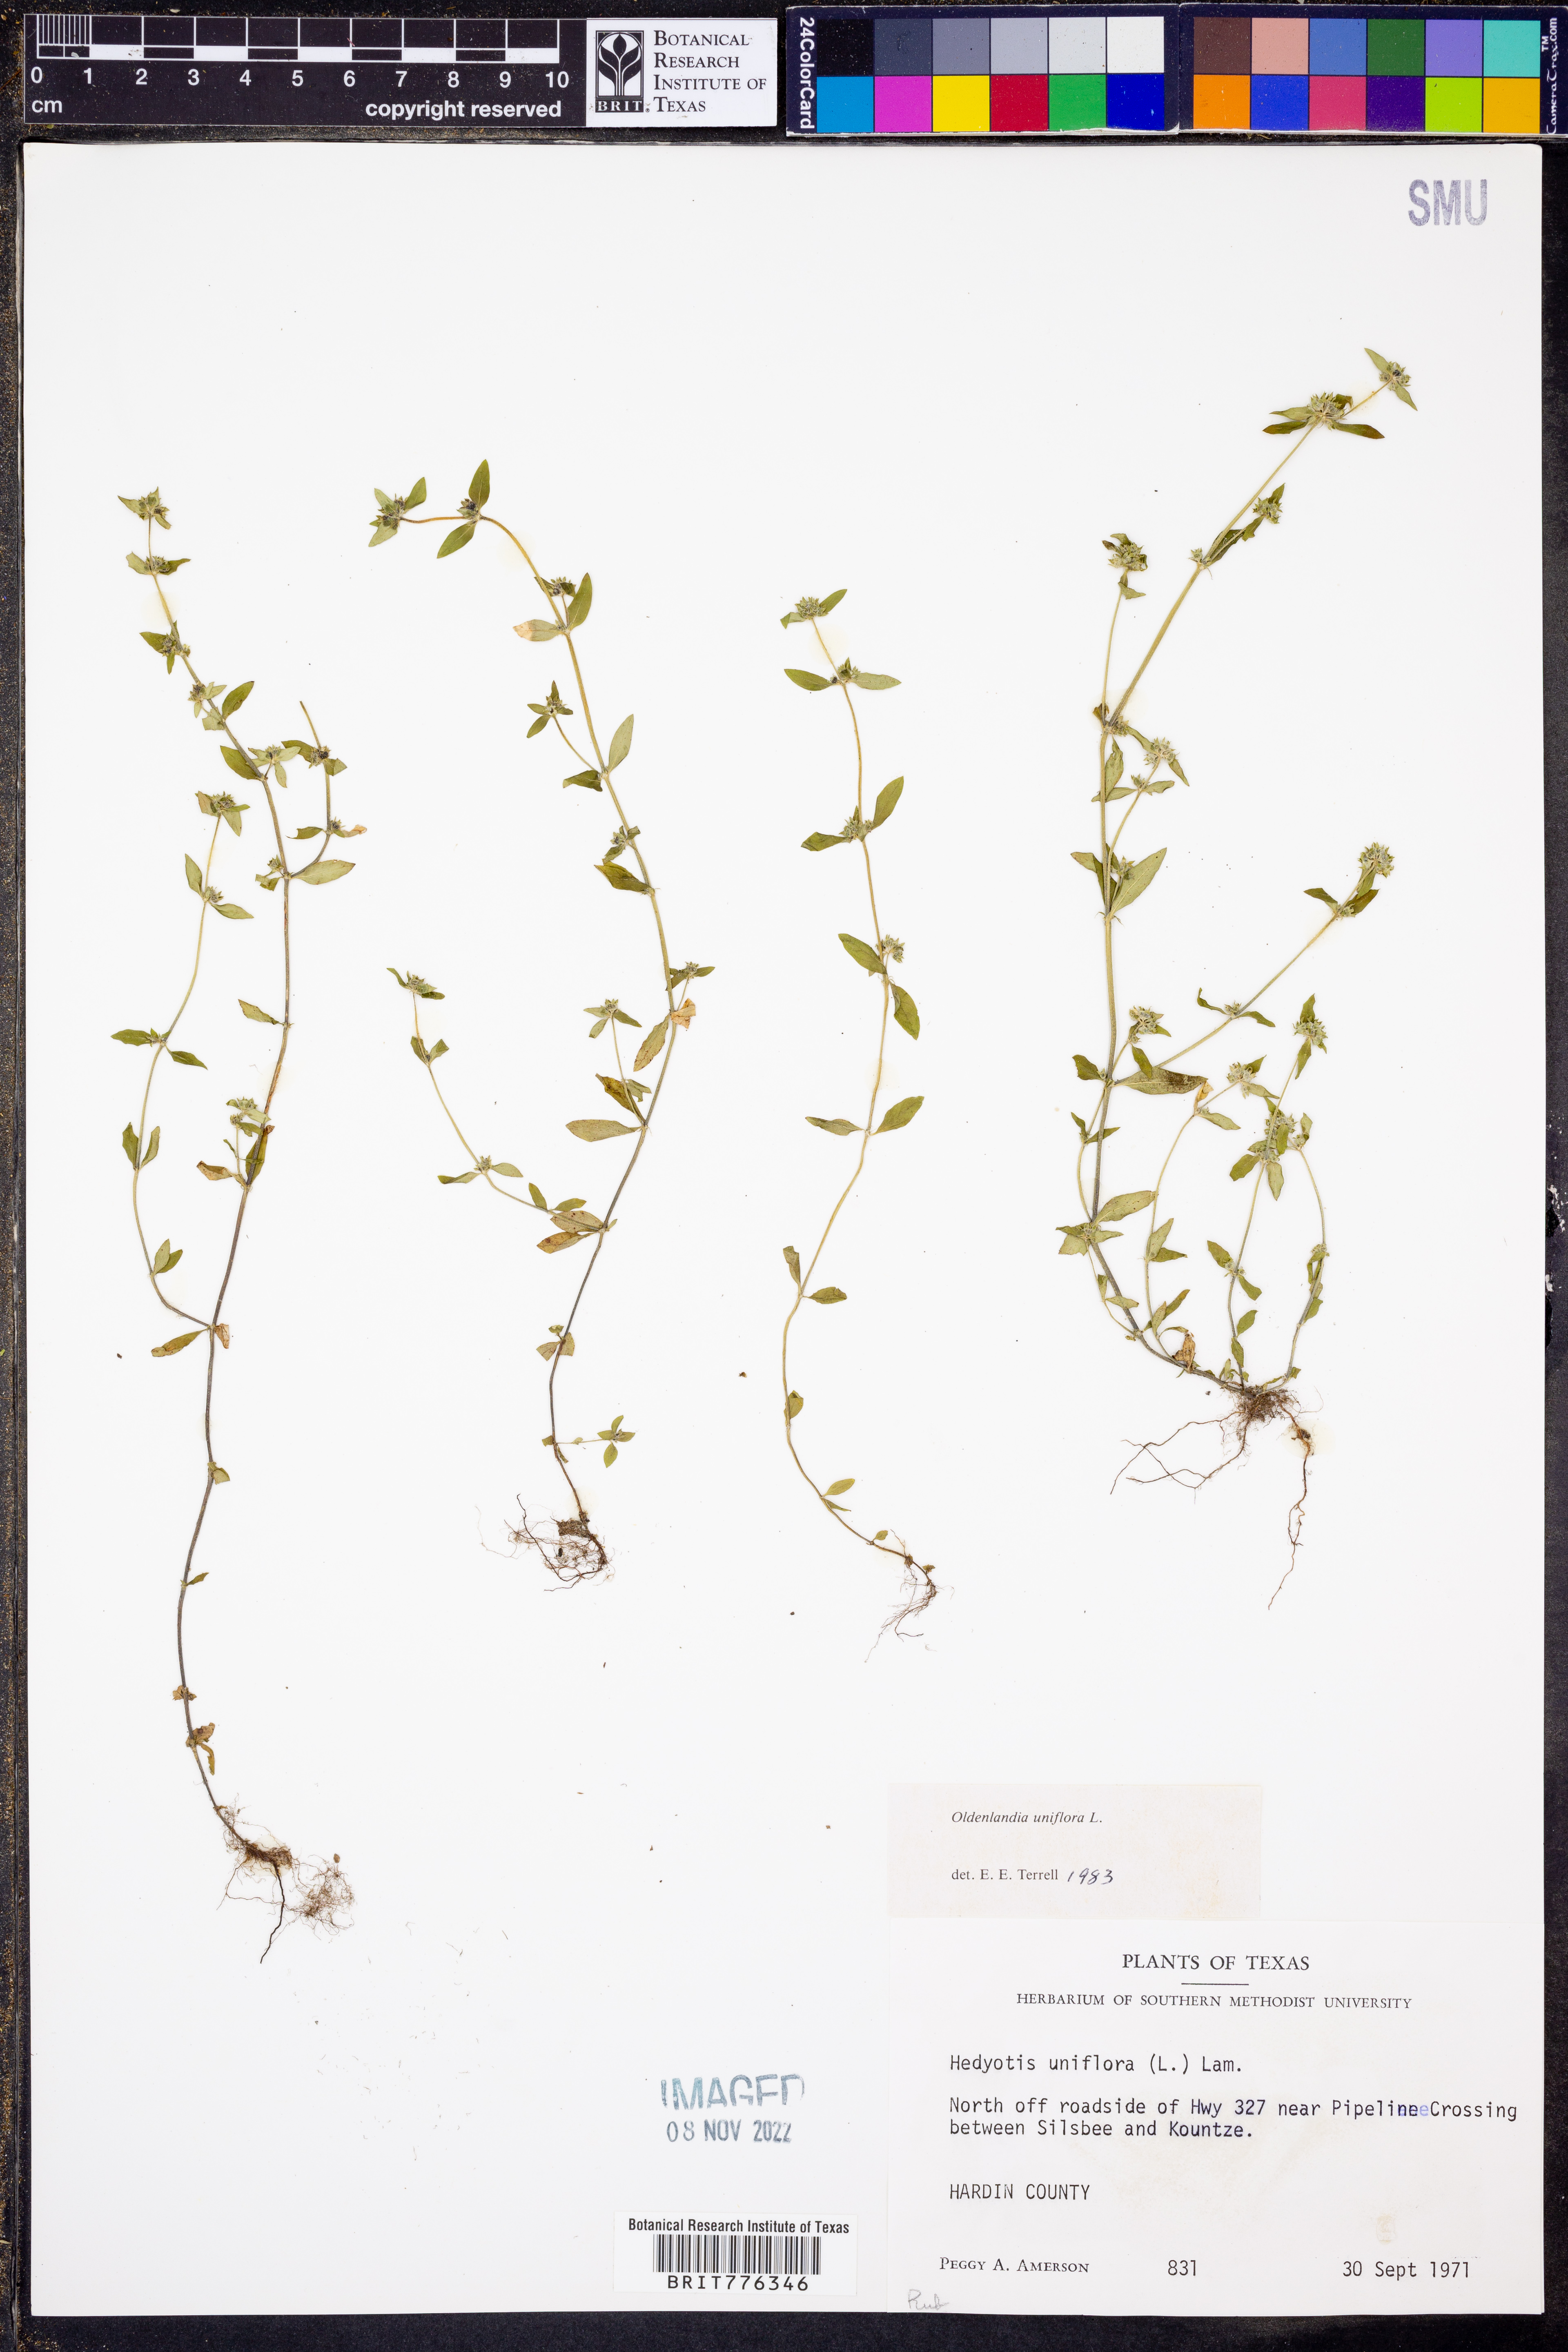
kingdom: Plantae
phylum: Tracheophyta
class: Magnoliopsida
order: Gentianales
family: Rubiaceae
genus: Edrastima
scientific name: Edrastima uniflora
